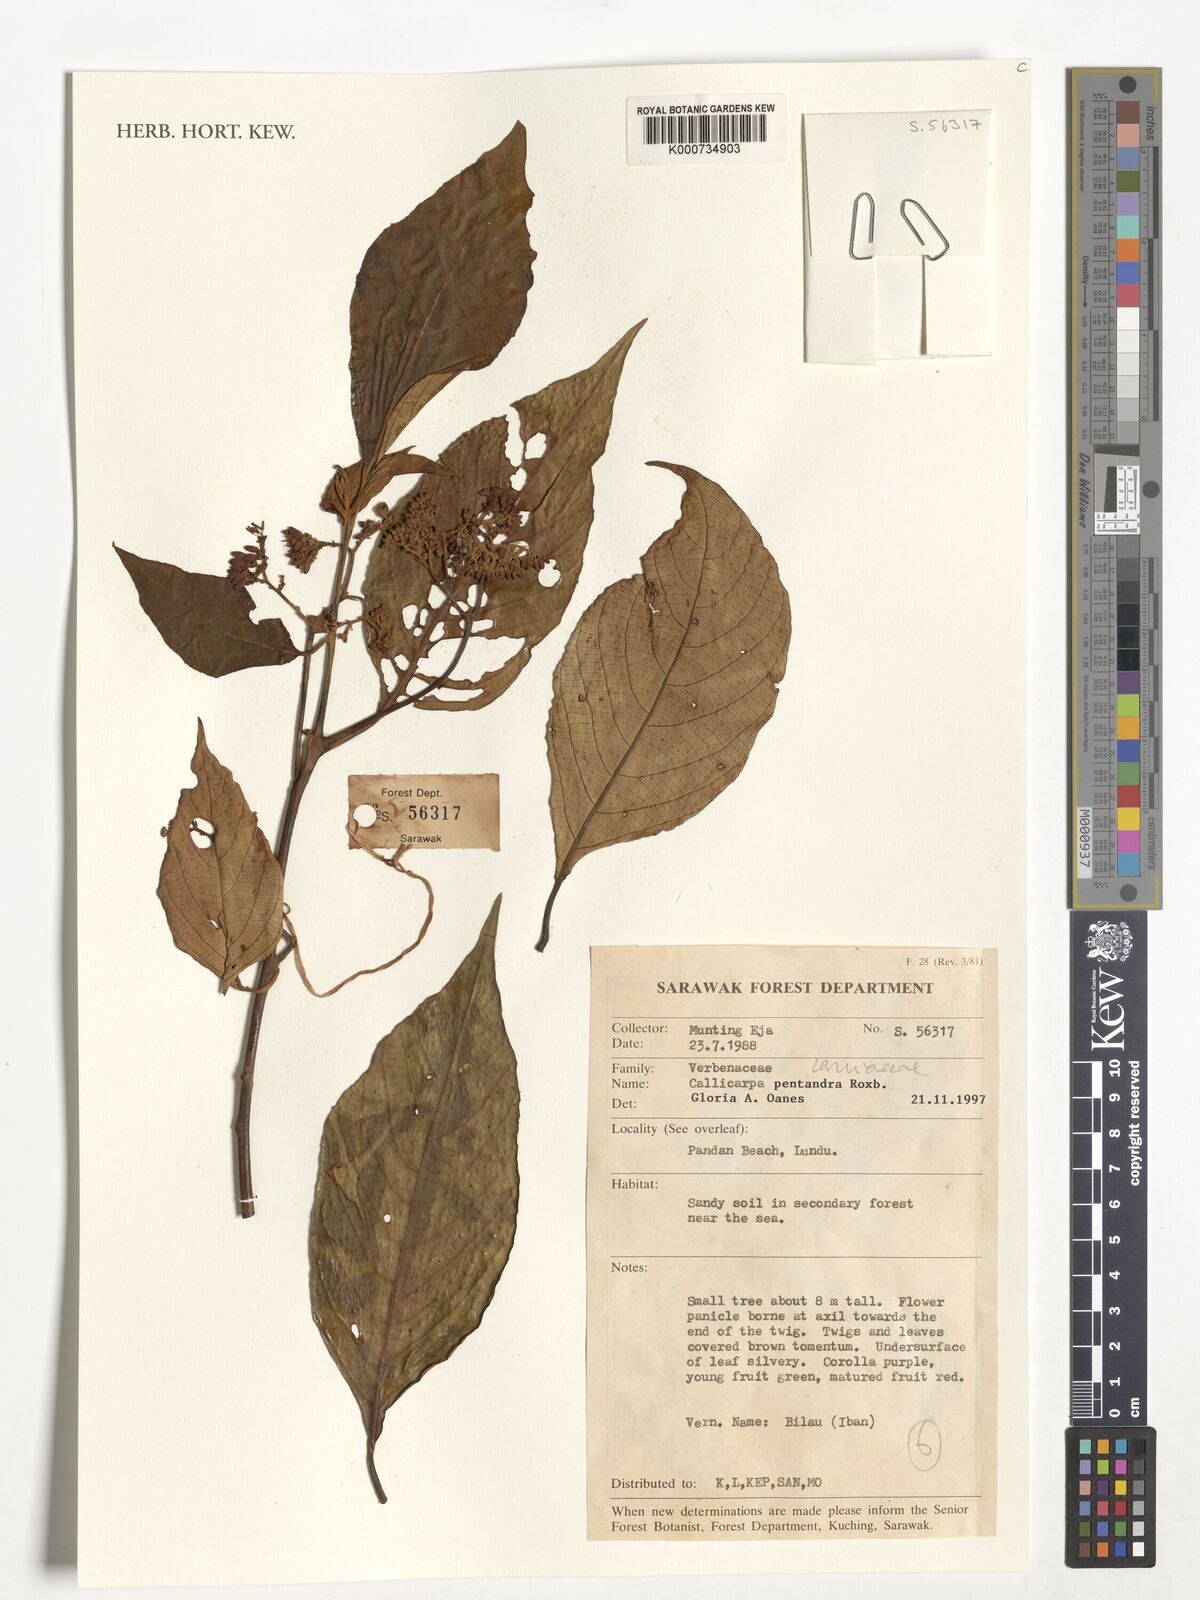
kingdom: Plantae
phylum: Tracheophyta
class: Magnoliopsida
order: Lamiales
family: Lamiaceae
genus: Callicarpa
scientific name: Callicarpa pentandra
